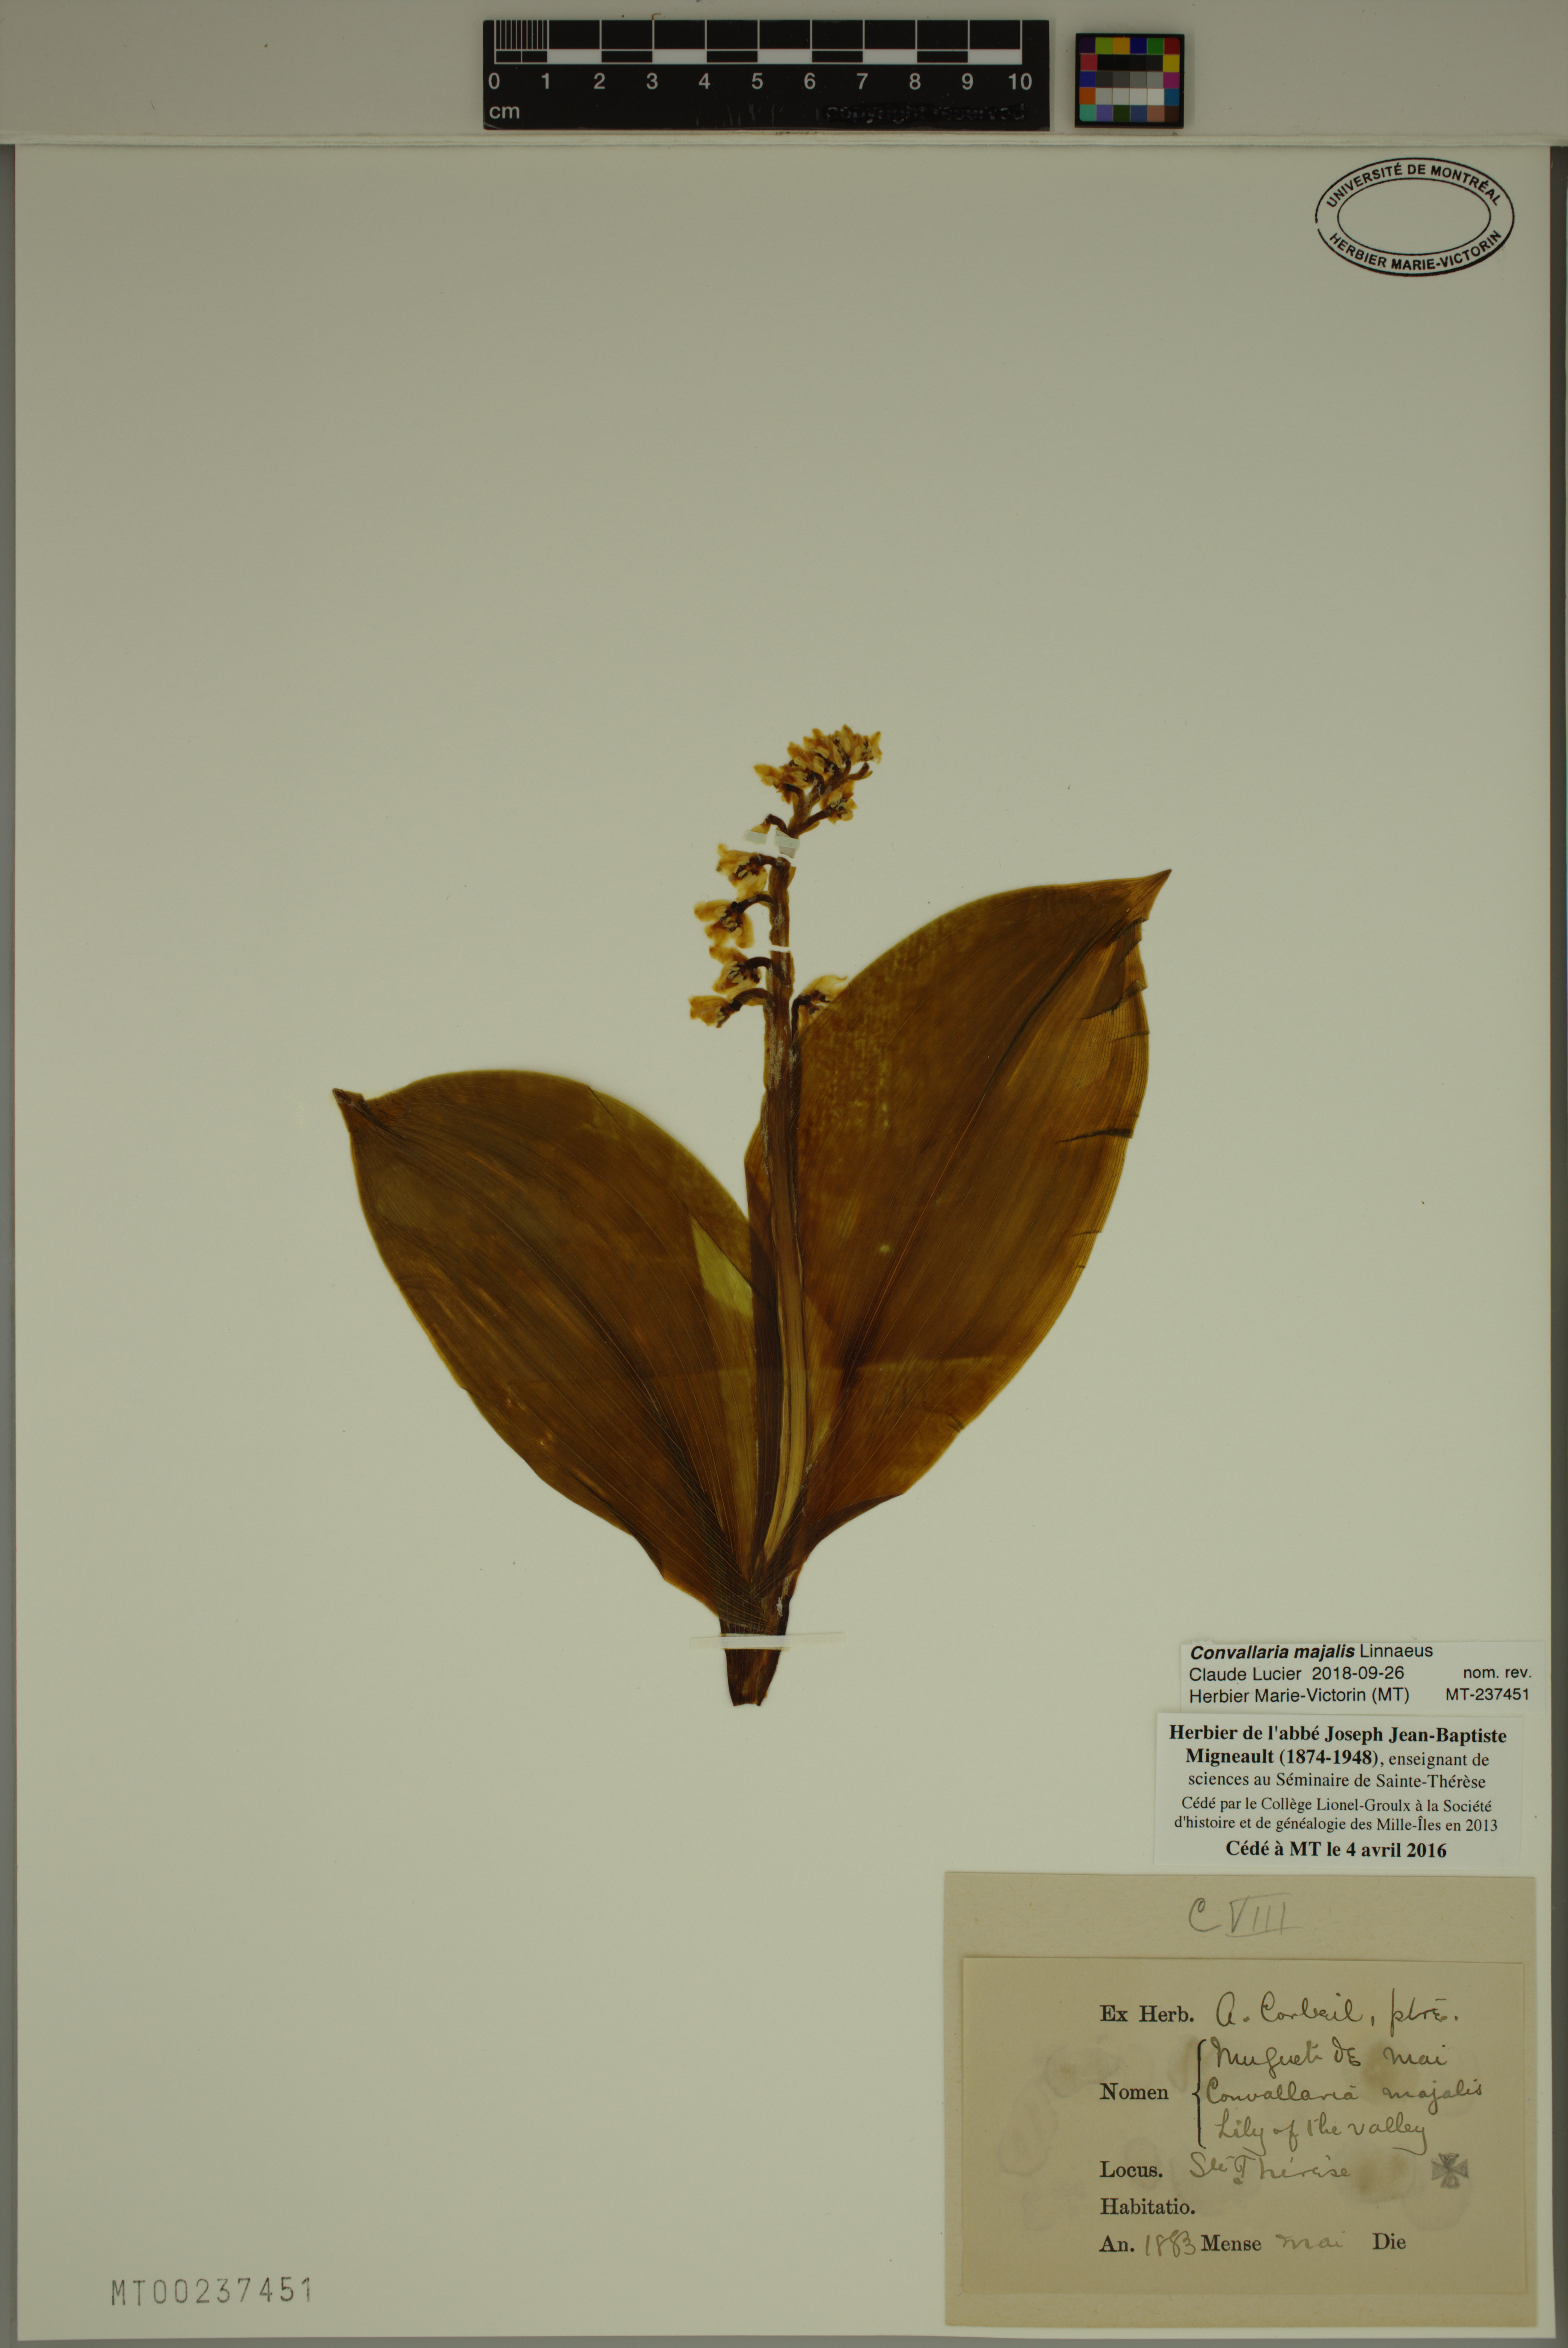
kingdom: Plantae
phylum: Tracheophyta
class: Liliopsida
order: Asparagales
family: Asparagaceae
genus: Convallaria
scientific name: Convallaria majalis
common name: Lily-of-the-valley
